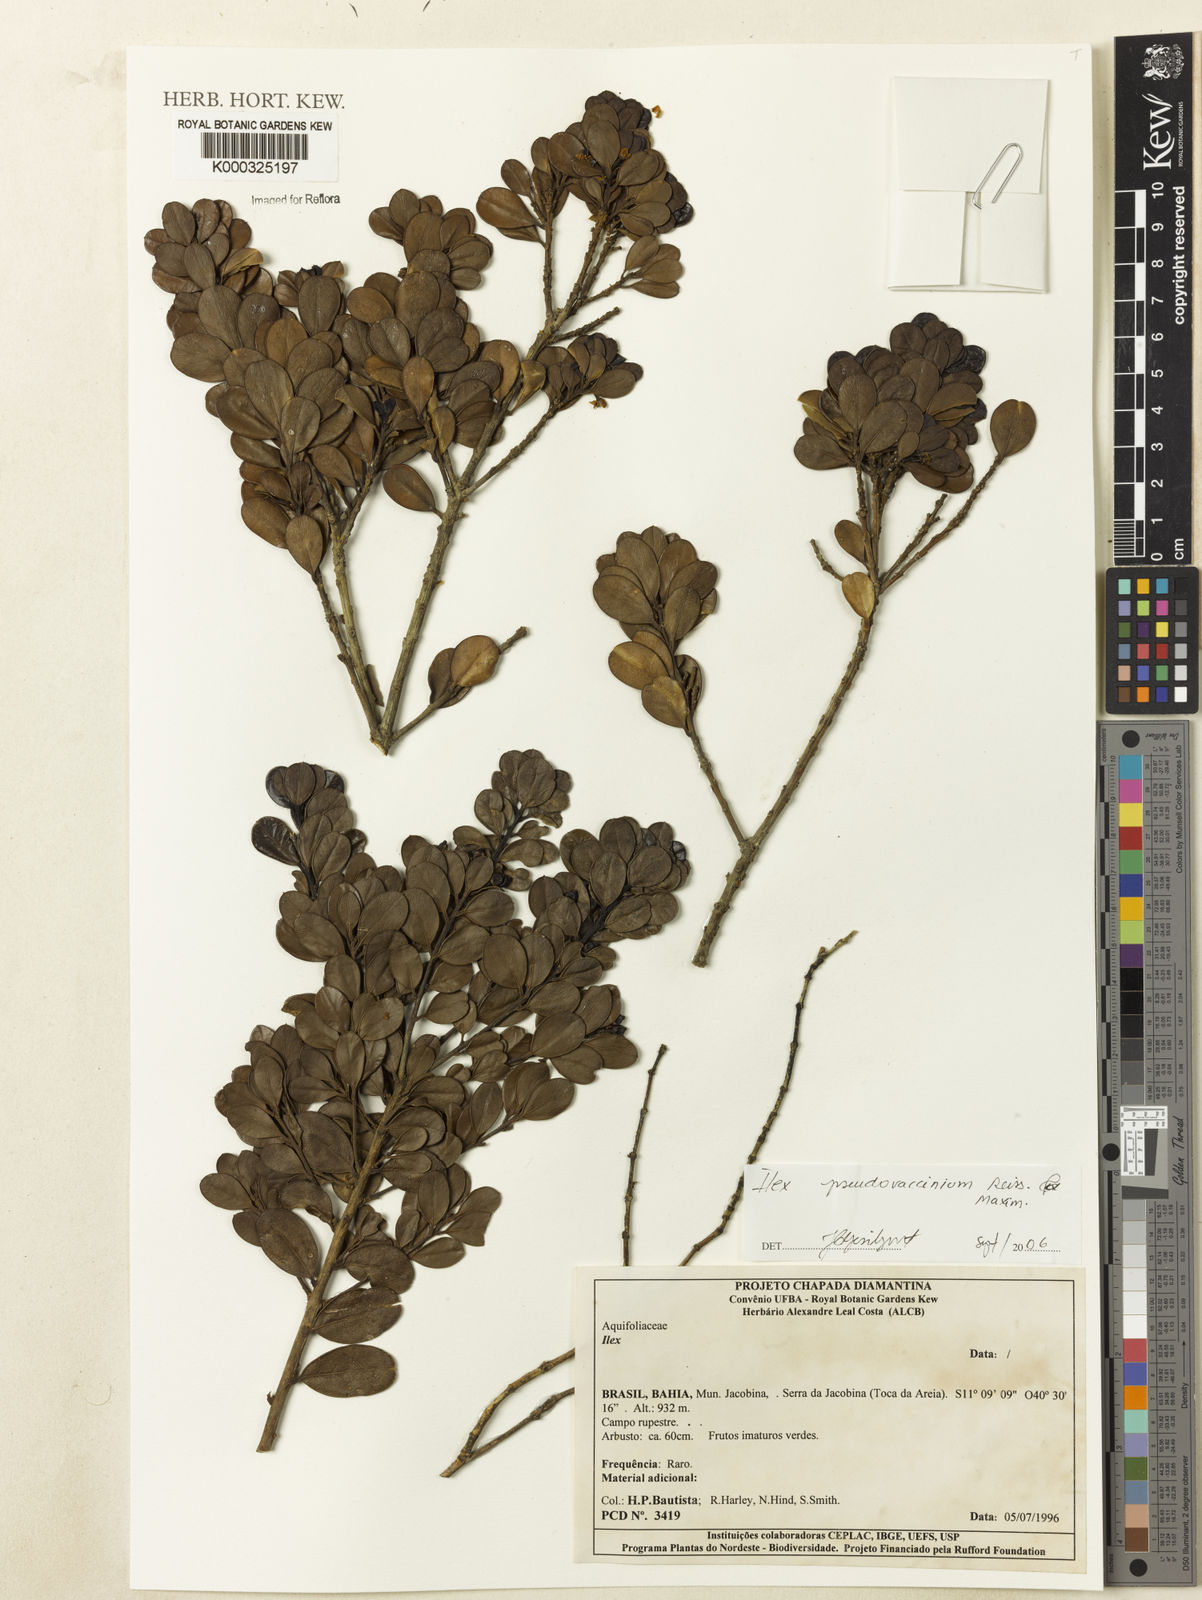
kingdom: Plantae
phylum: Tracheophyta
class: Magnoliopsida
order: Aquifoliales
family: Aquifoliaceae
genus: Ilex
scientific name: Ilex pseudovaccinium
